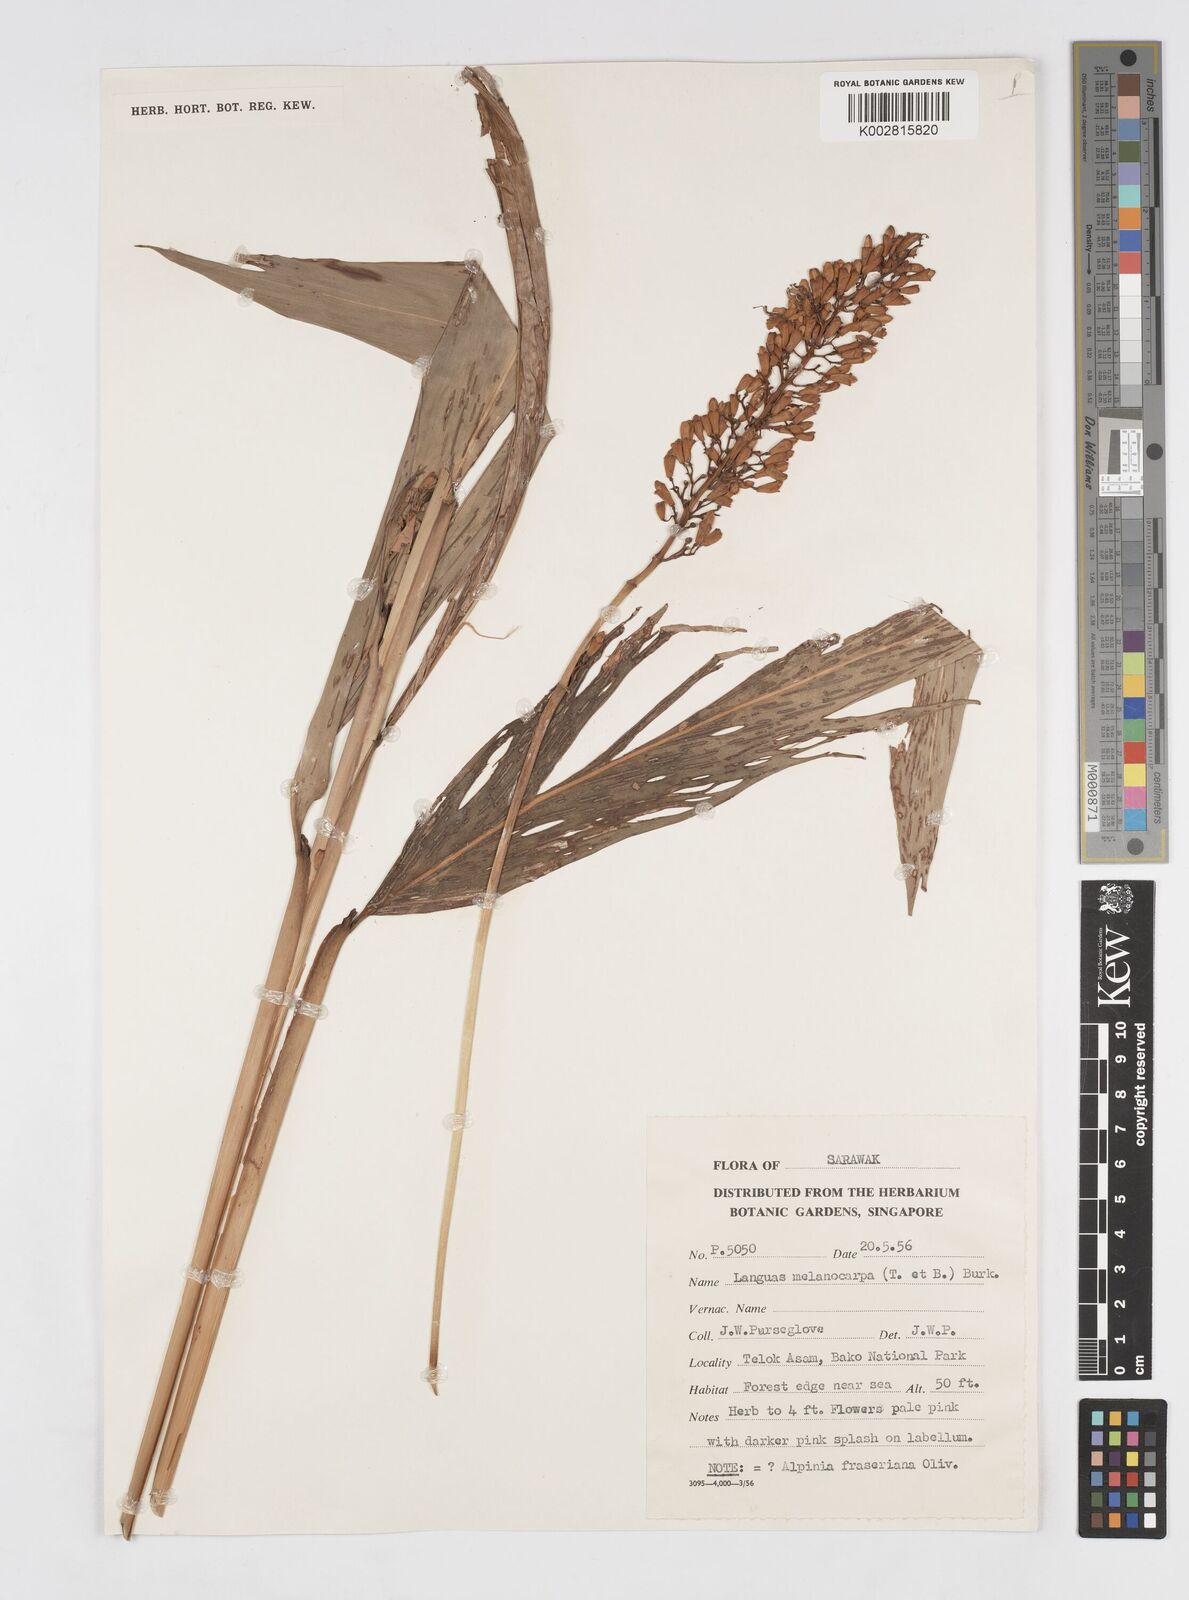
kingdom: Plantae
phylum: Tracheophyta
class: Liliopsida
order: Zingiberales
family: Zingiberaceae
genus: Alpinia
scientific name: Alpinia aquatica
